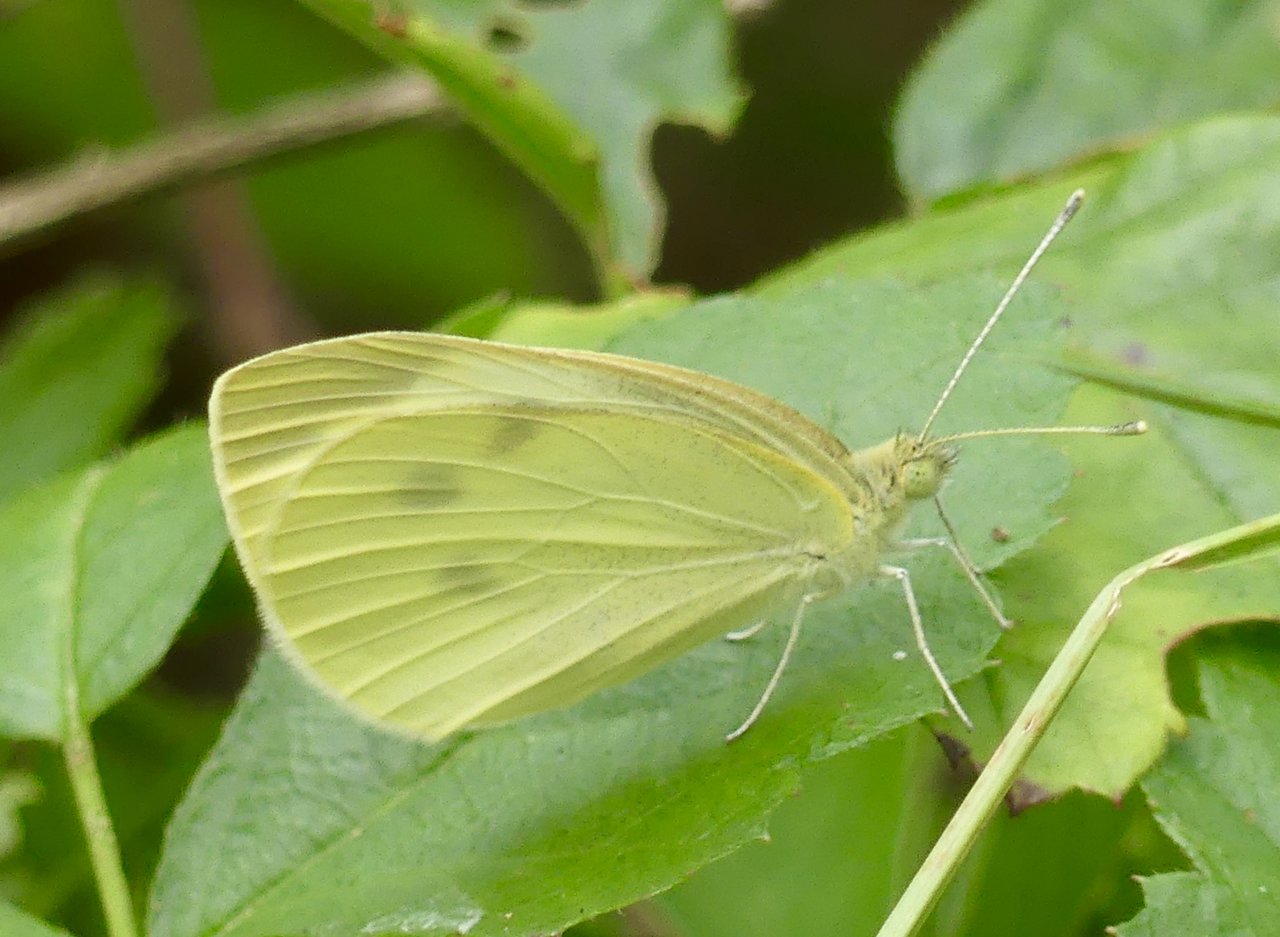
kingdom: Animalia
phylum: Arthropoda
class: Insecta
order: Lepidoptera
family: Pieridae
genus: Pieris
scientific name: Pieris rapae
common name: Cabbage White
